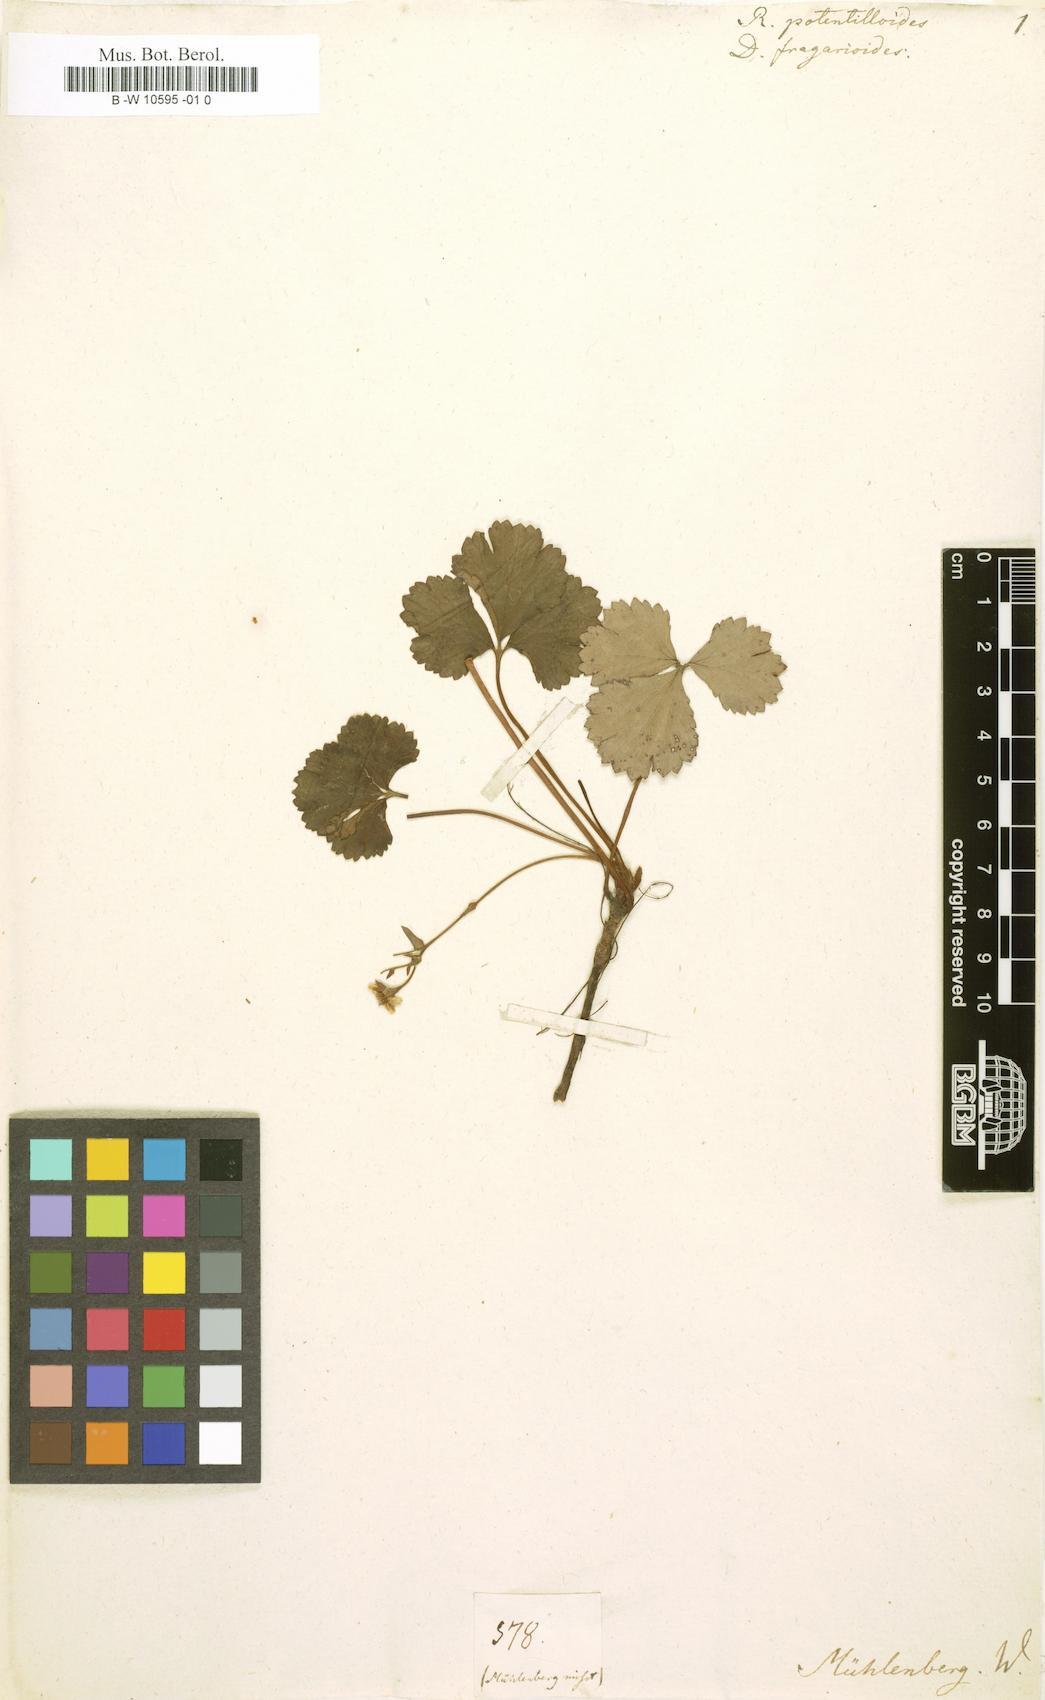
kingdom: Plantae
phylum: Tracheophyta
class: Magnoliopsida
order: Ranunculales
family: Ranunculaceae
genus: Ranunculus
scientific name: Ranunculus
